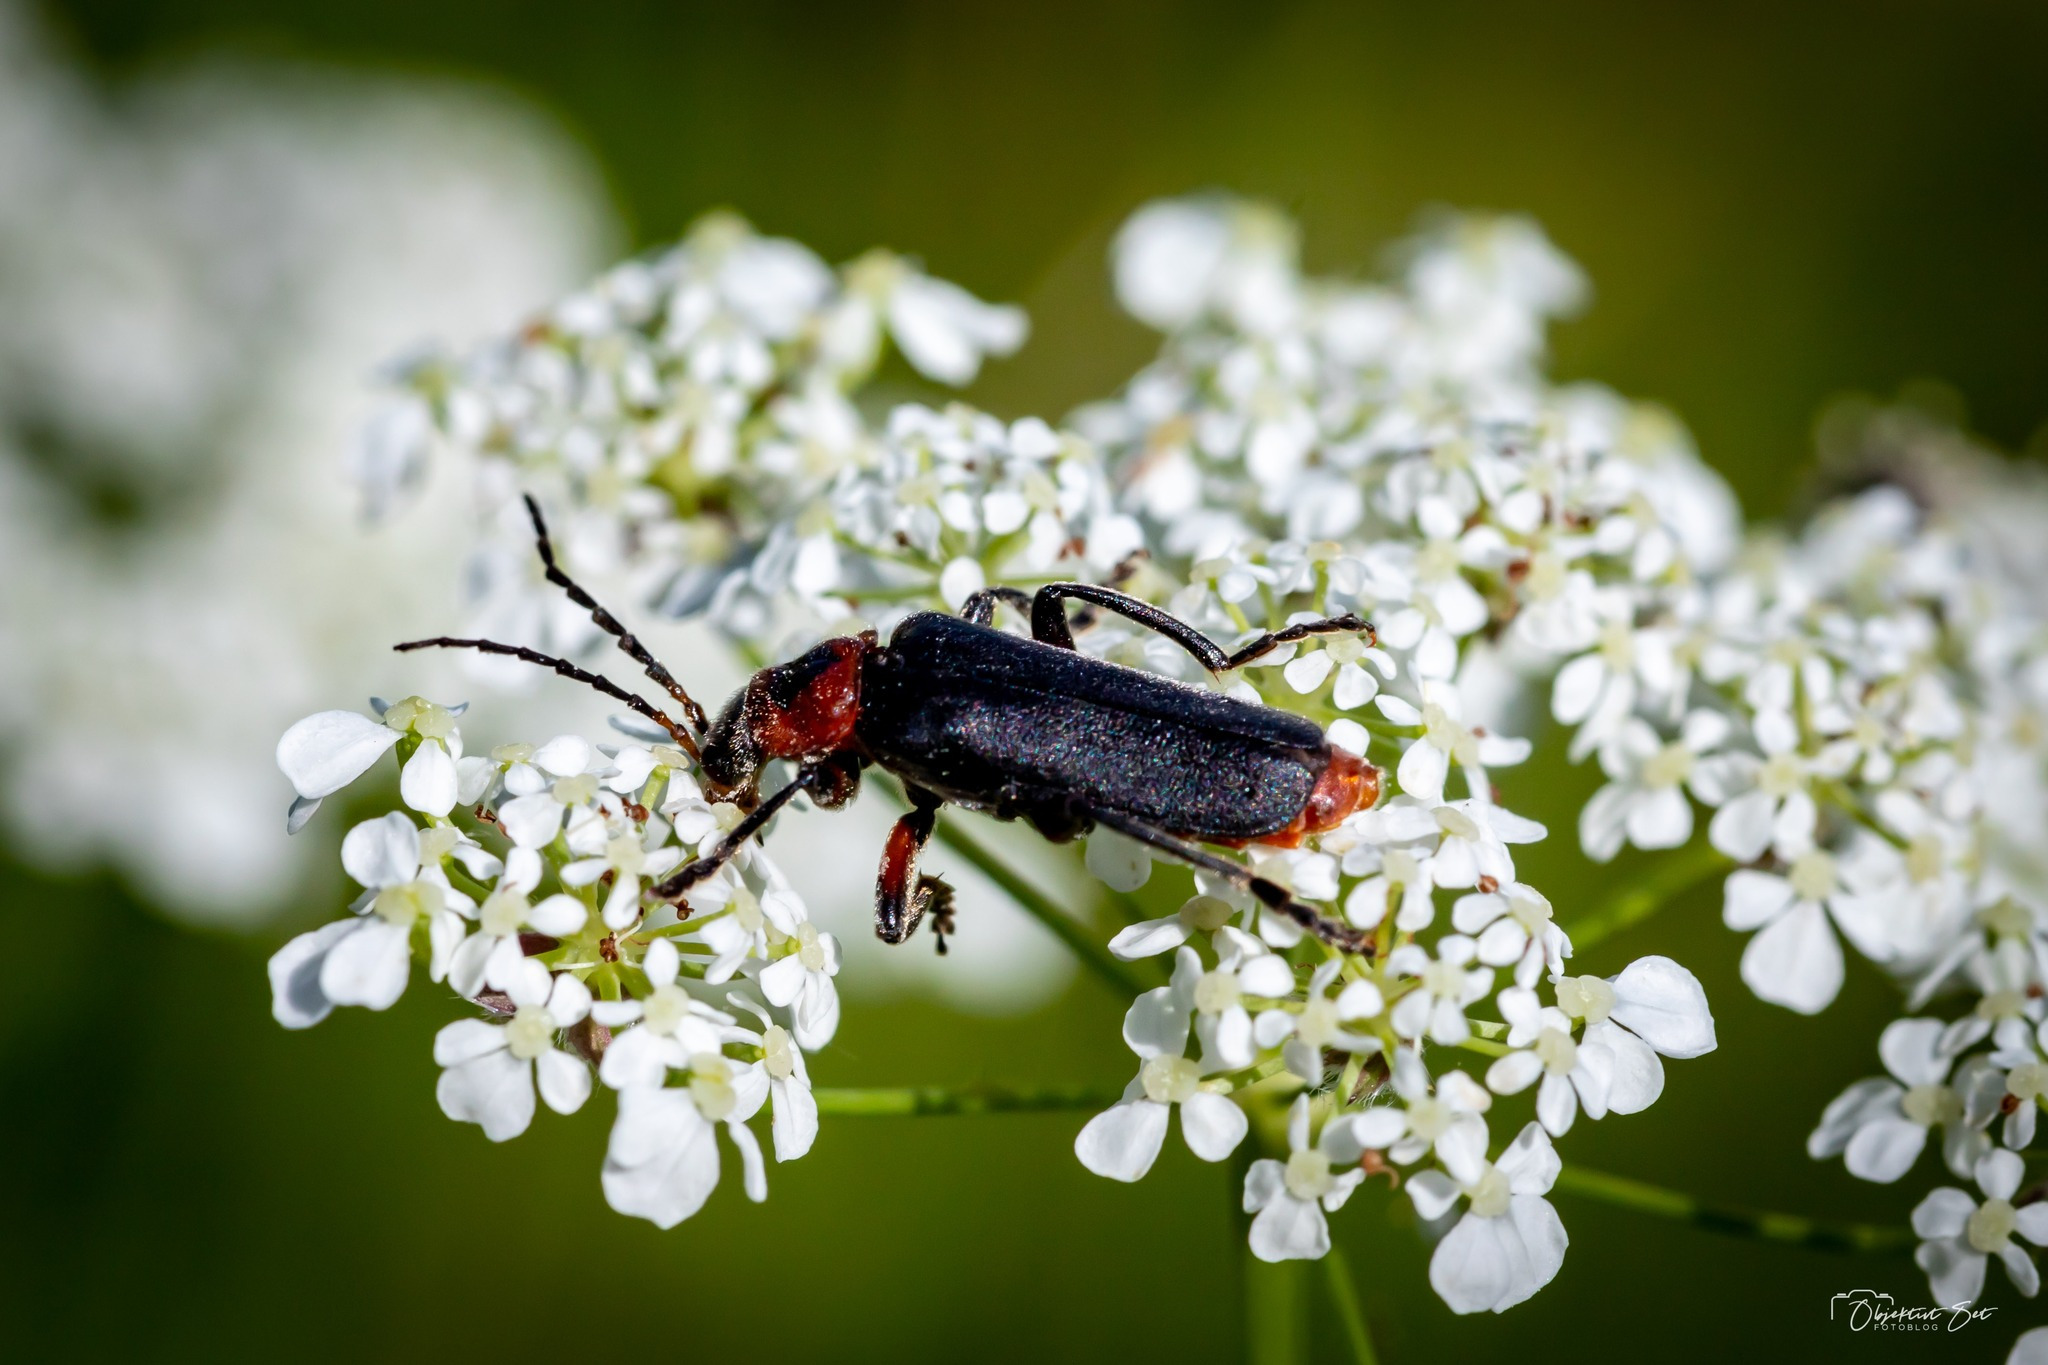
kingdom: Animalia
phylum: Arthropoda
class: Insecta
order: Coleoptera
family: Cantharidae
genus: Cantharis
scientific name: Cantharis rustica
